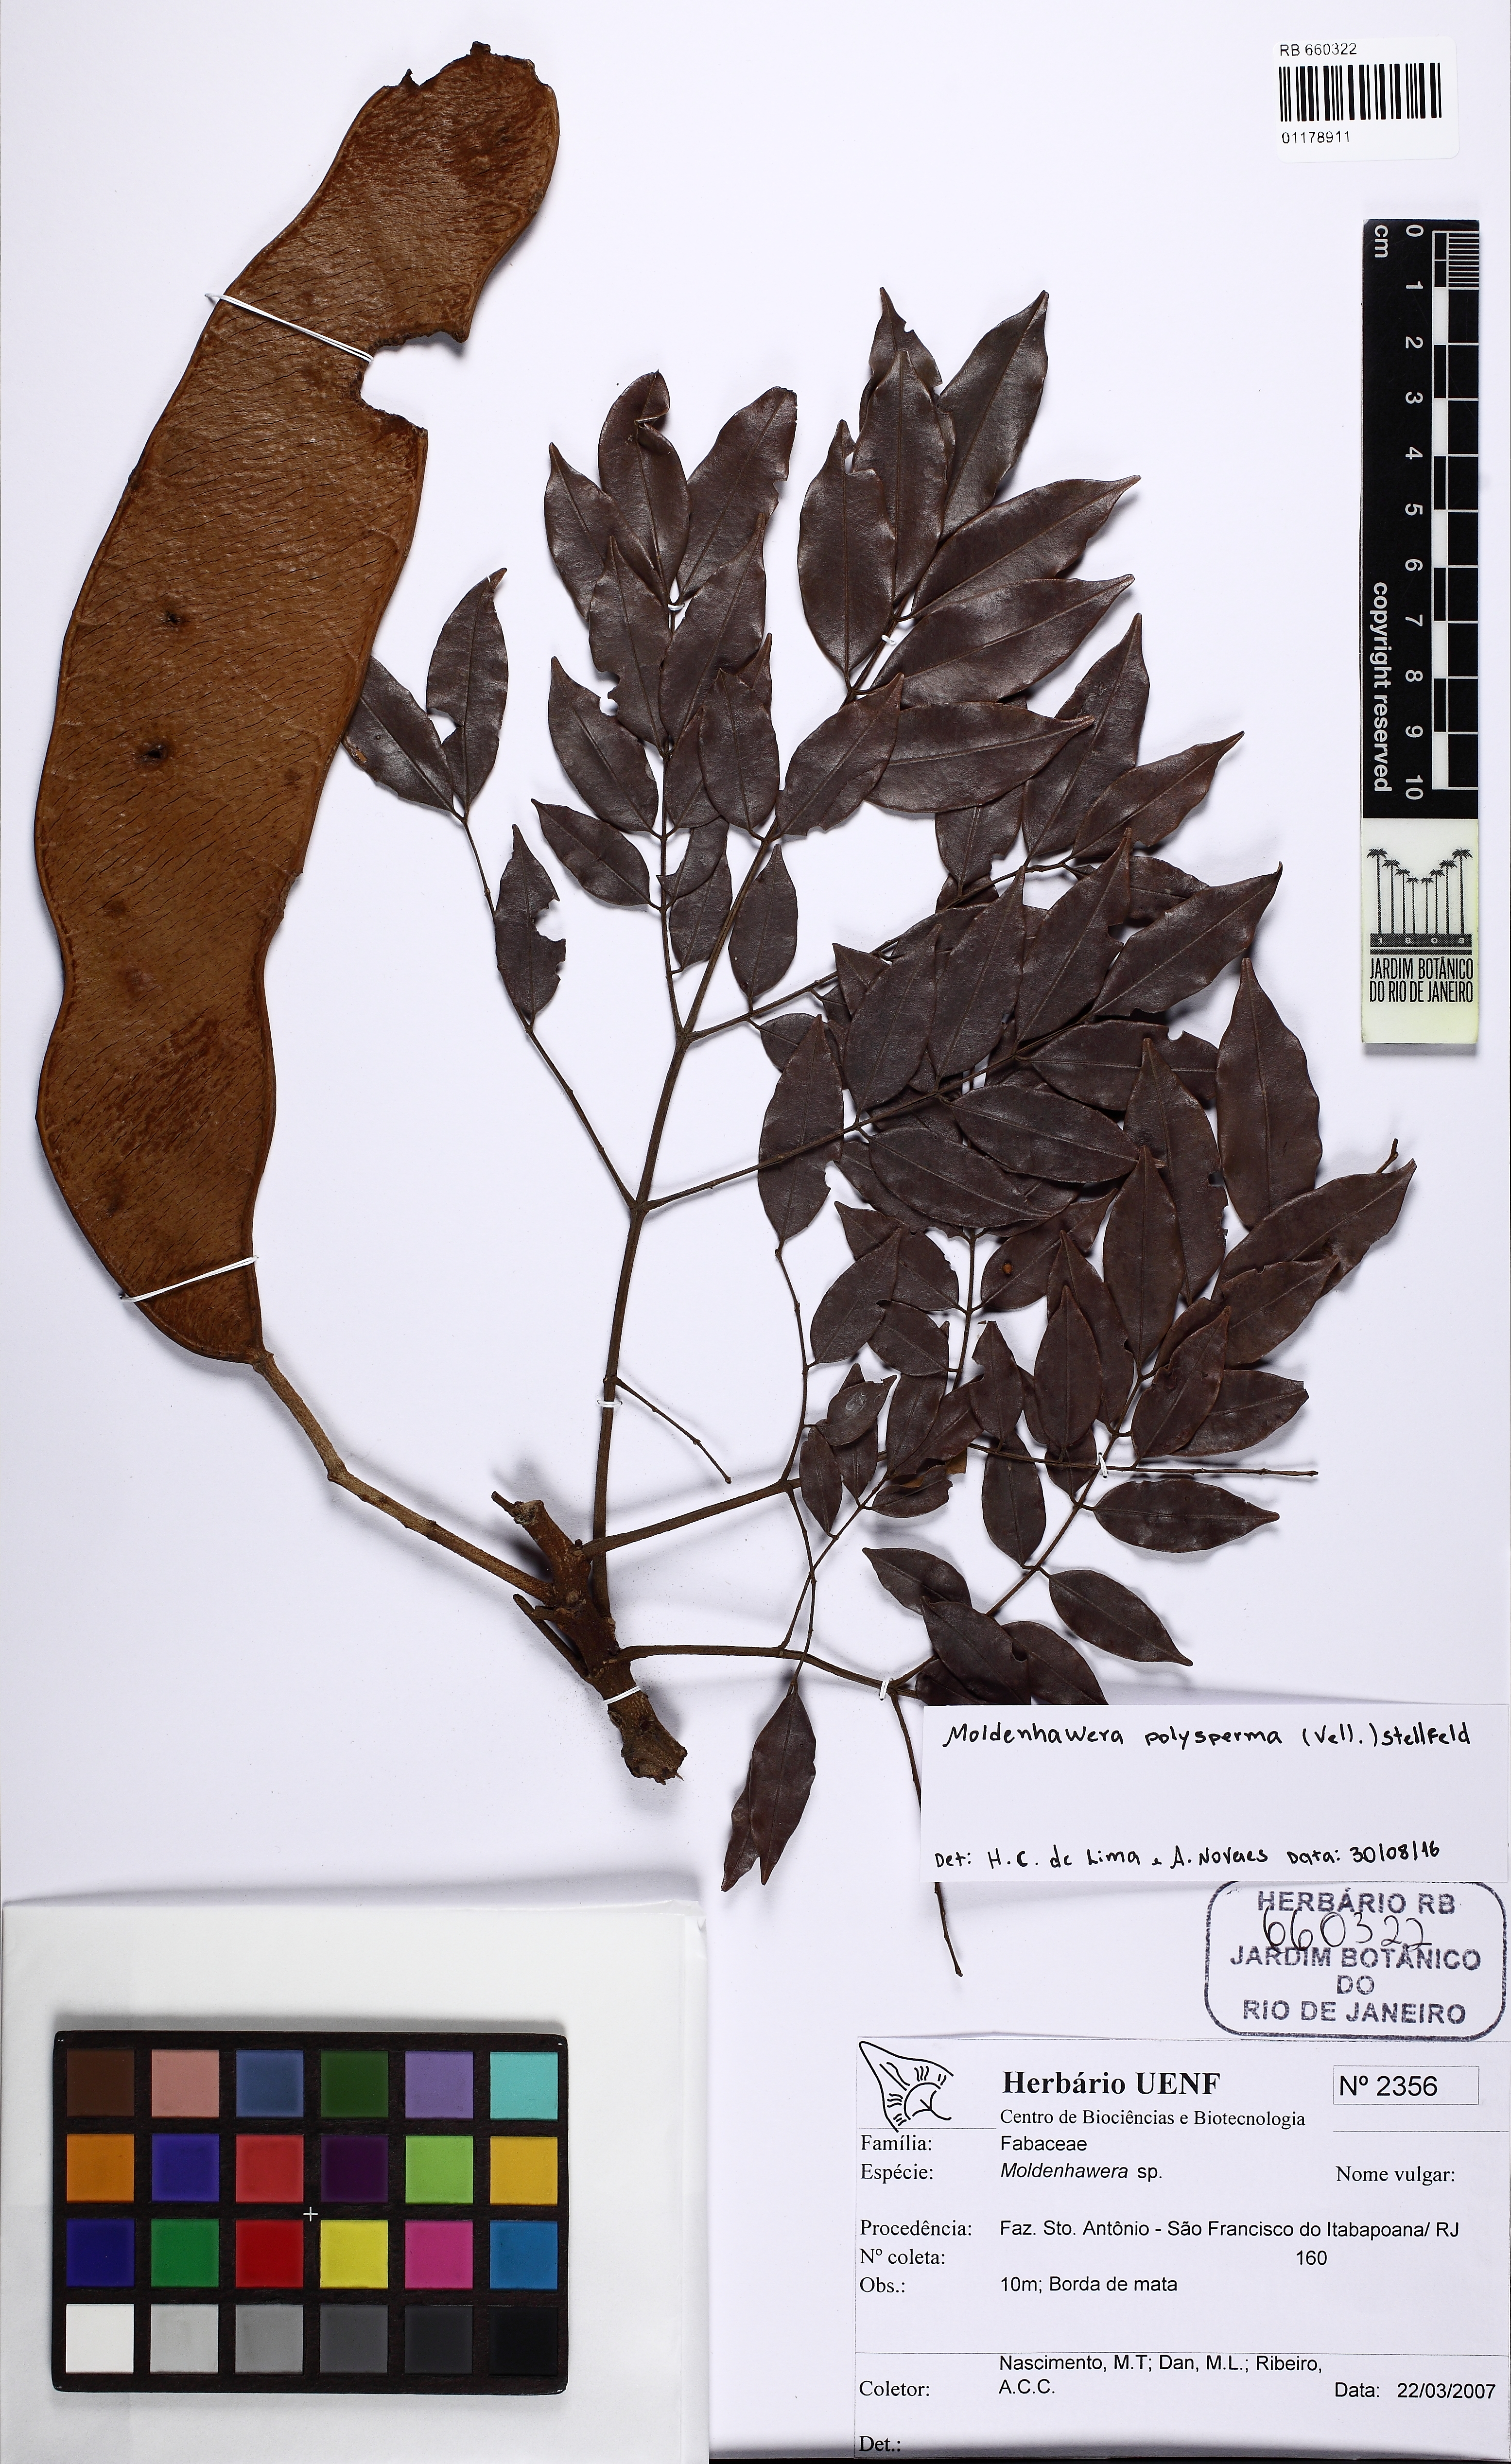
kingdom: Plantae
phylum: Tracheophyta
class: Magnoliopsida
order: Fabales
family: Fabaceae
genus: Moldenhawera
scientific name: Moldenhawera polysperma
